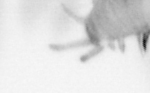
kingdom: Animalia
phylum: Annelida
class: Polychaeta
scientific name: Polychaeta
